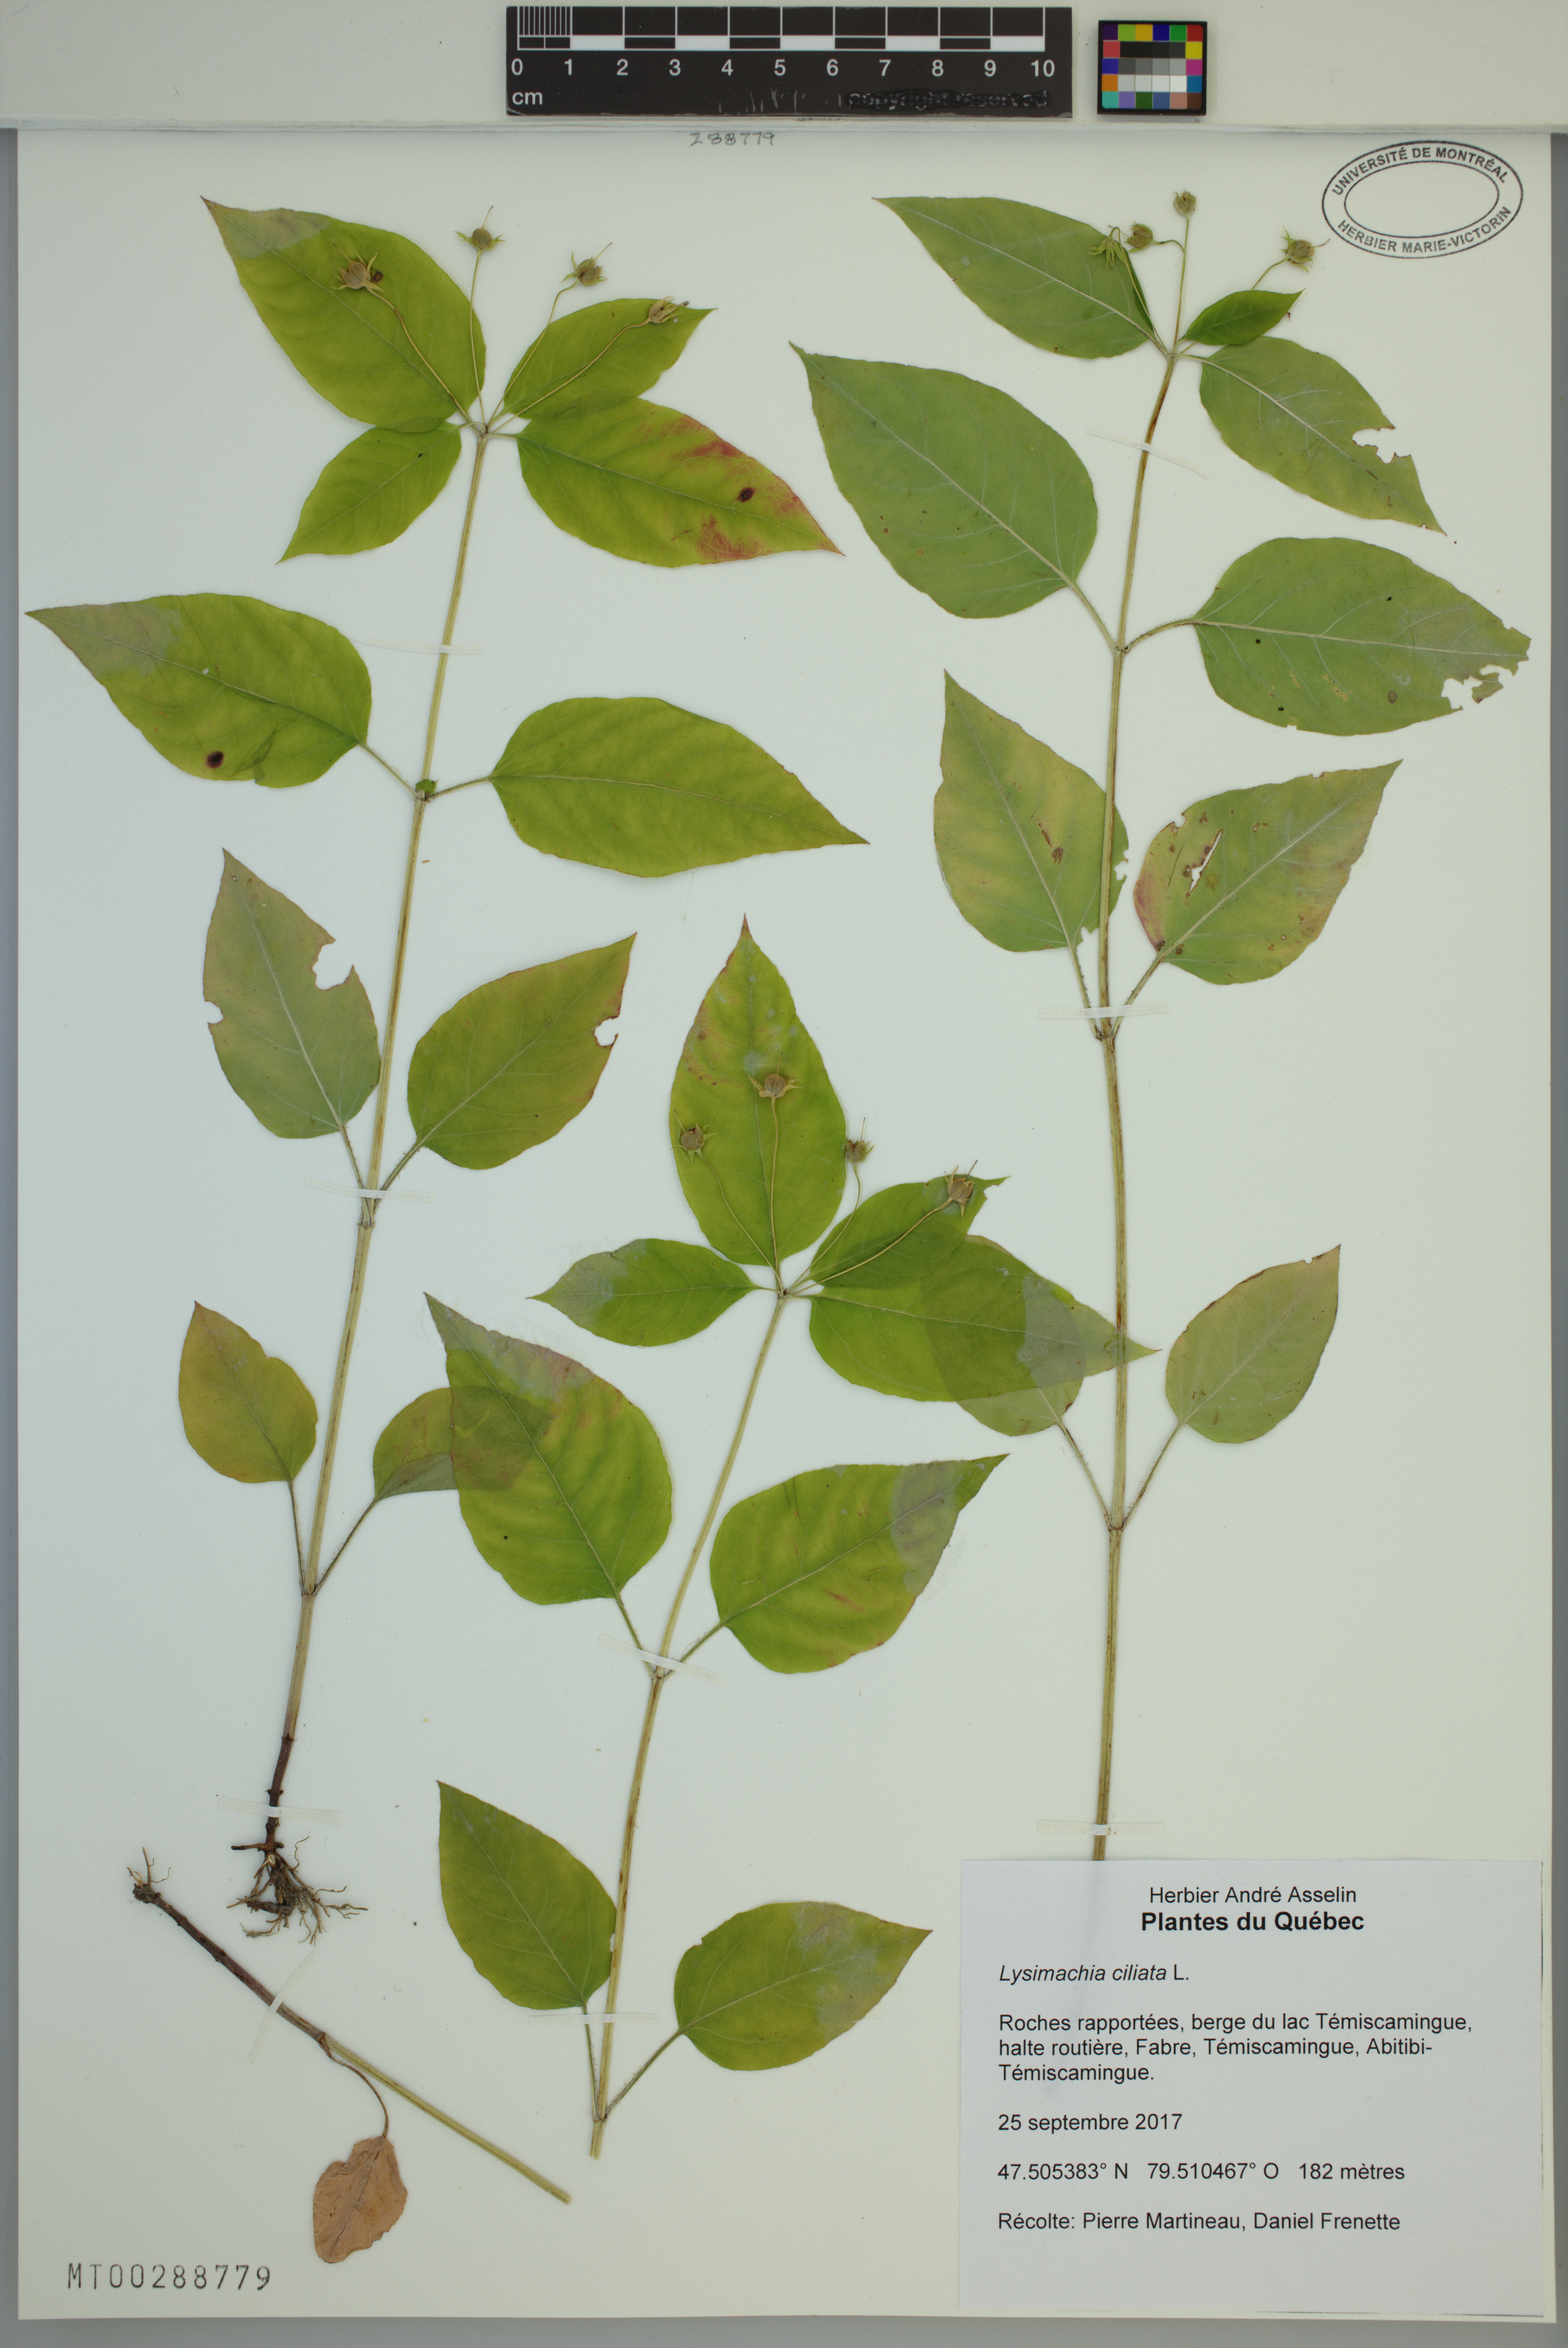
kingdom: Plantae
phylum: Tracheophyta
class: Magnoliopsida
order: Ericales
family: Primulaceae
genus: Lysimachia
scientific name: Lysimachia ciliata
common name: Fringed loosestrife
